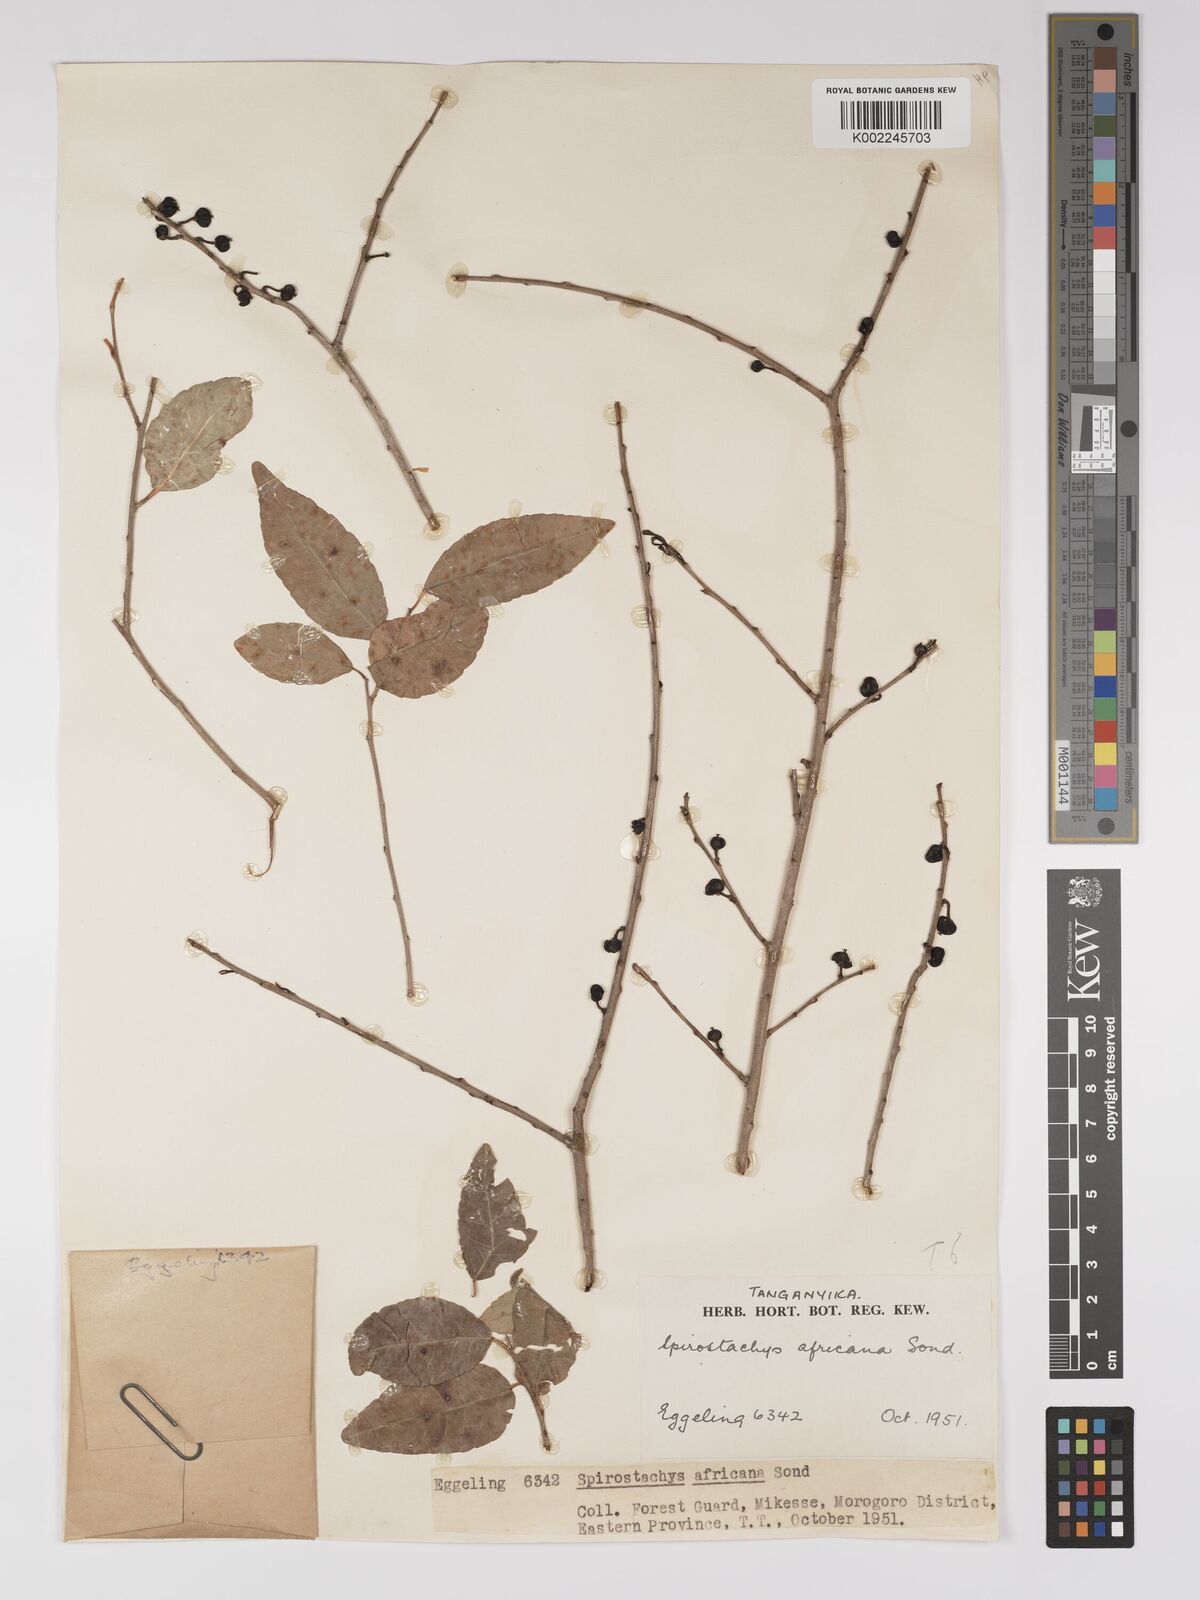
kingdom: Plantae
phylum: Tracheophyta
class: Magnoliopsida
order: Malpighiales
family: Euphorbiaceae
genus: Spirostachys
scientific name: Spirostachys africana
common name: Tamboti
